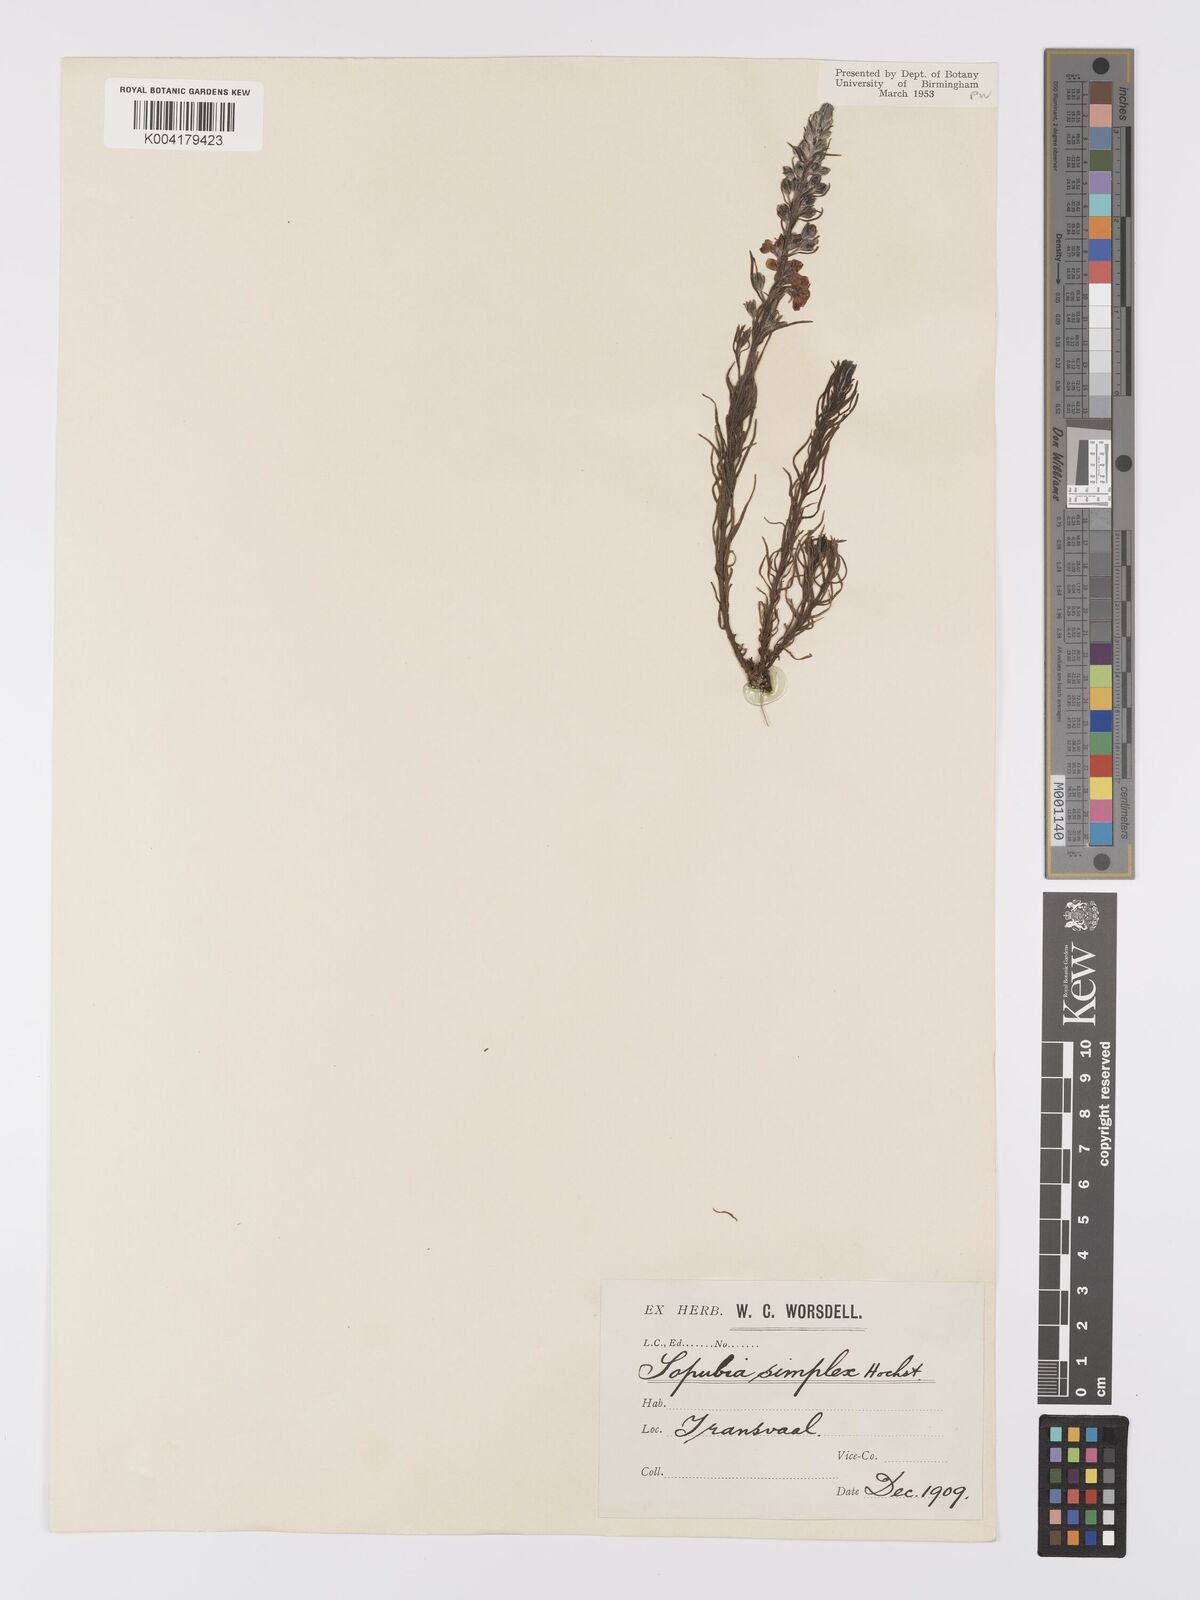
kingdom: Plantae
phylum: Tracheophyta
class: Magnoliopsida
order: Lamiales
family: Orobanchaceae
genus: Sopubia
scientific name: Sopubia simplex
